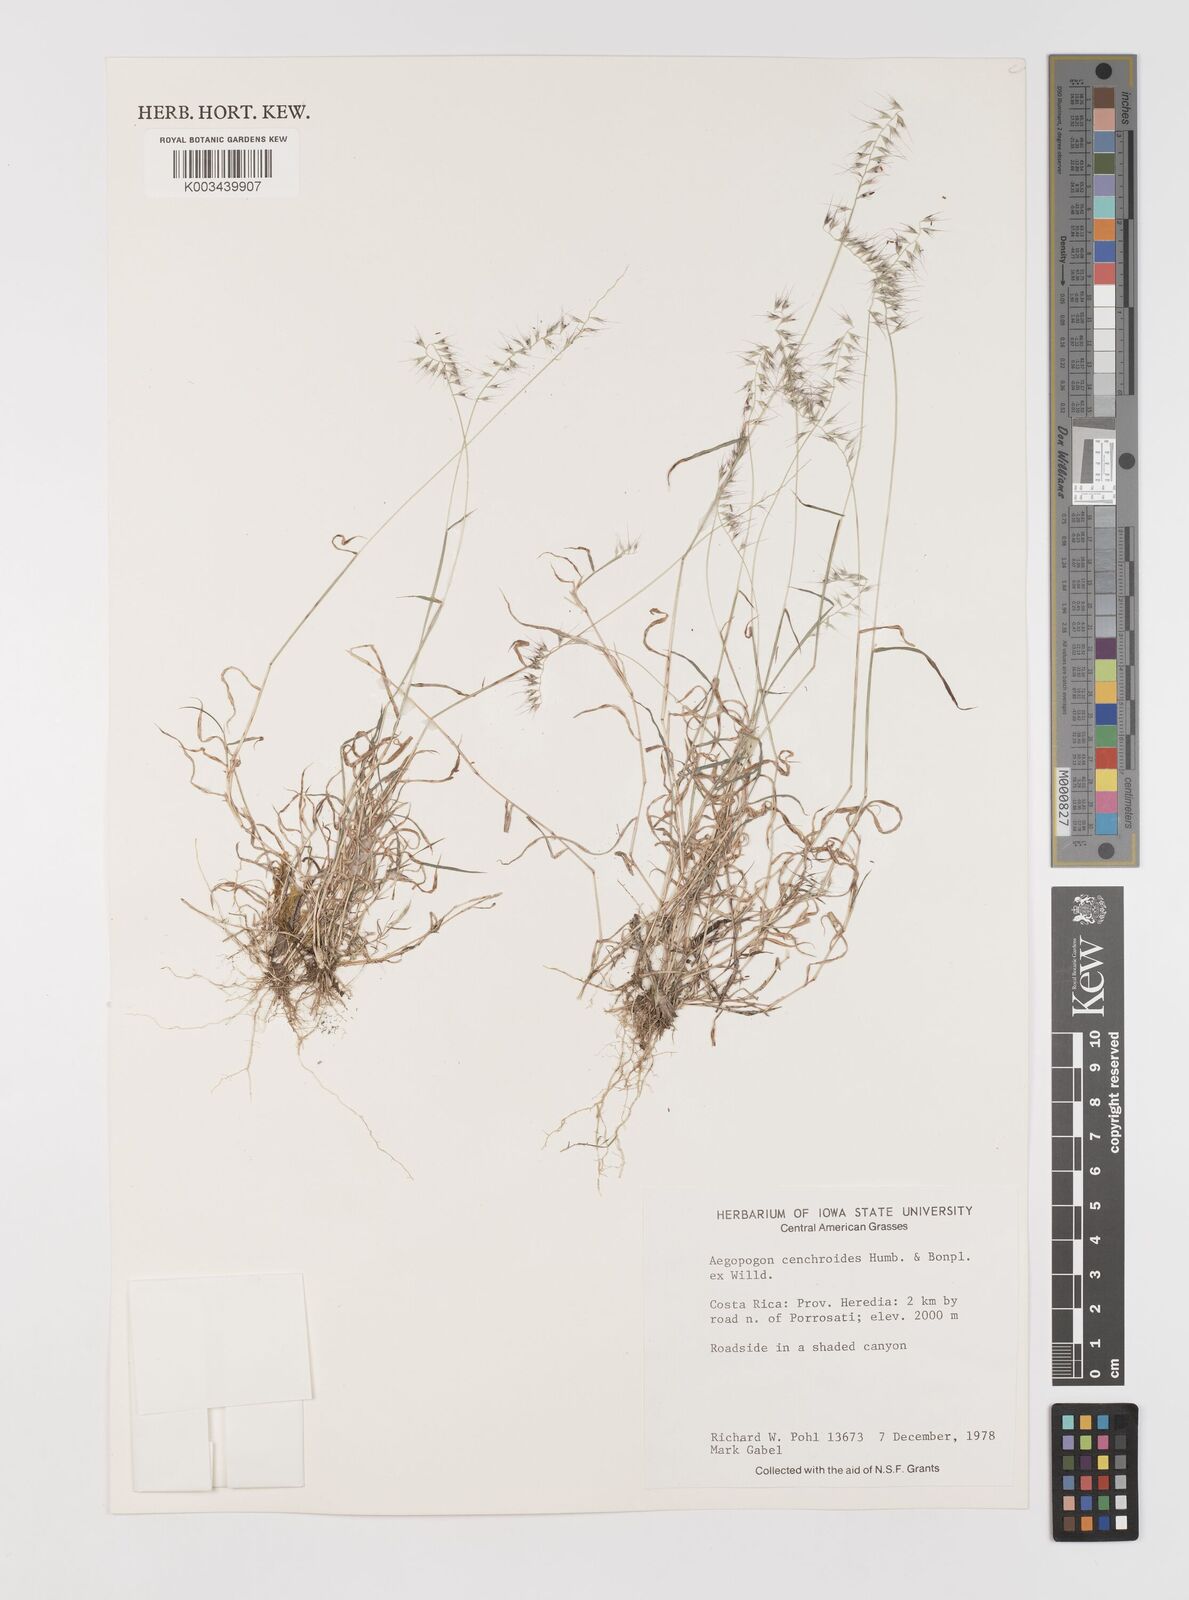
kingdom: Plantae
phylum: Tracheophyta
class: Liliopsida
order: Poales
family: Poaceae
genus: Muhlenbergia
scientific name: Muhlenbergia cenchroides
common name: Relaxgrass
